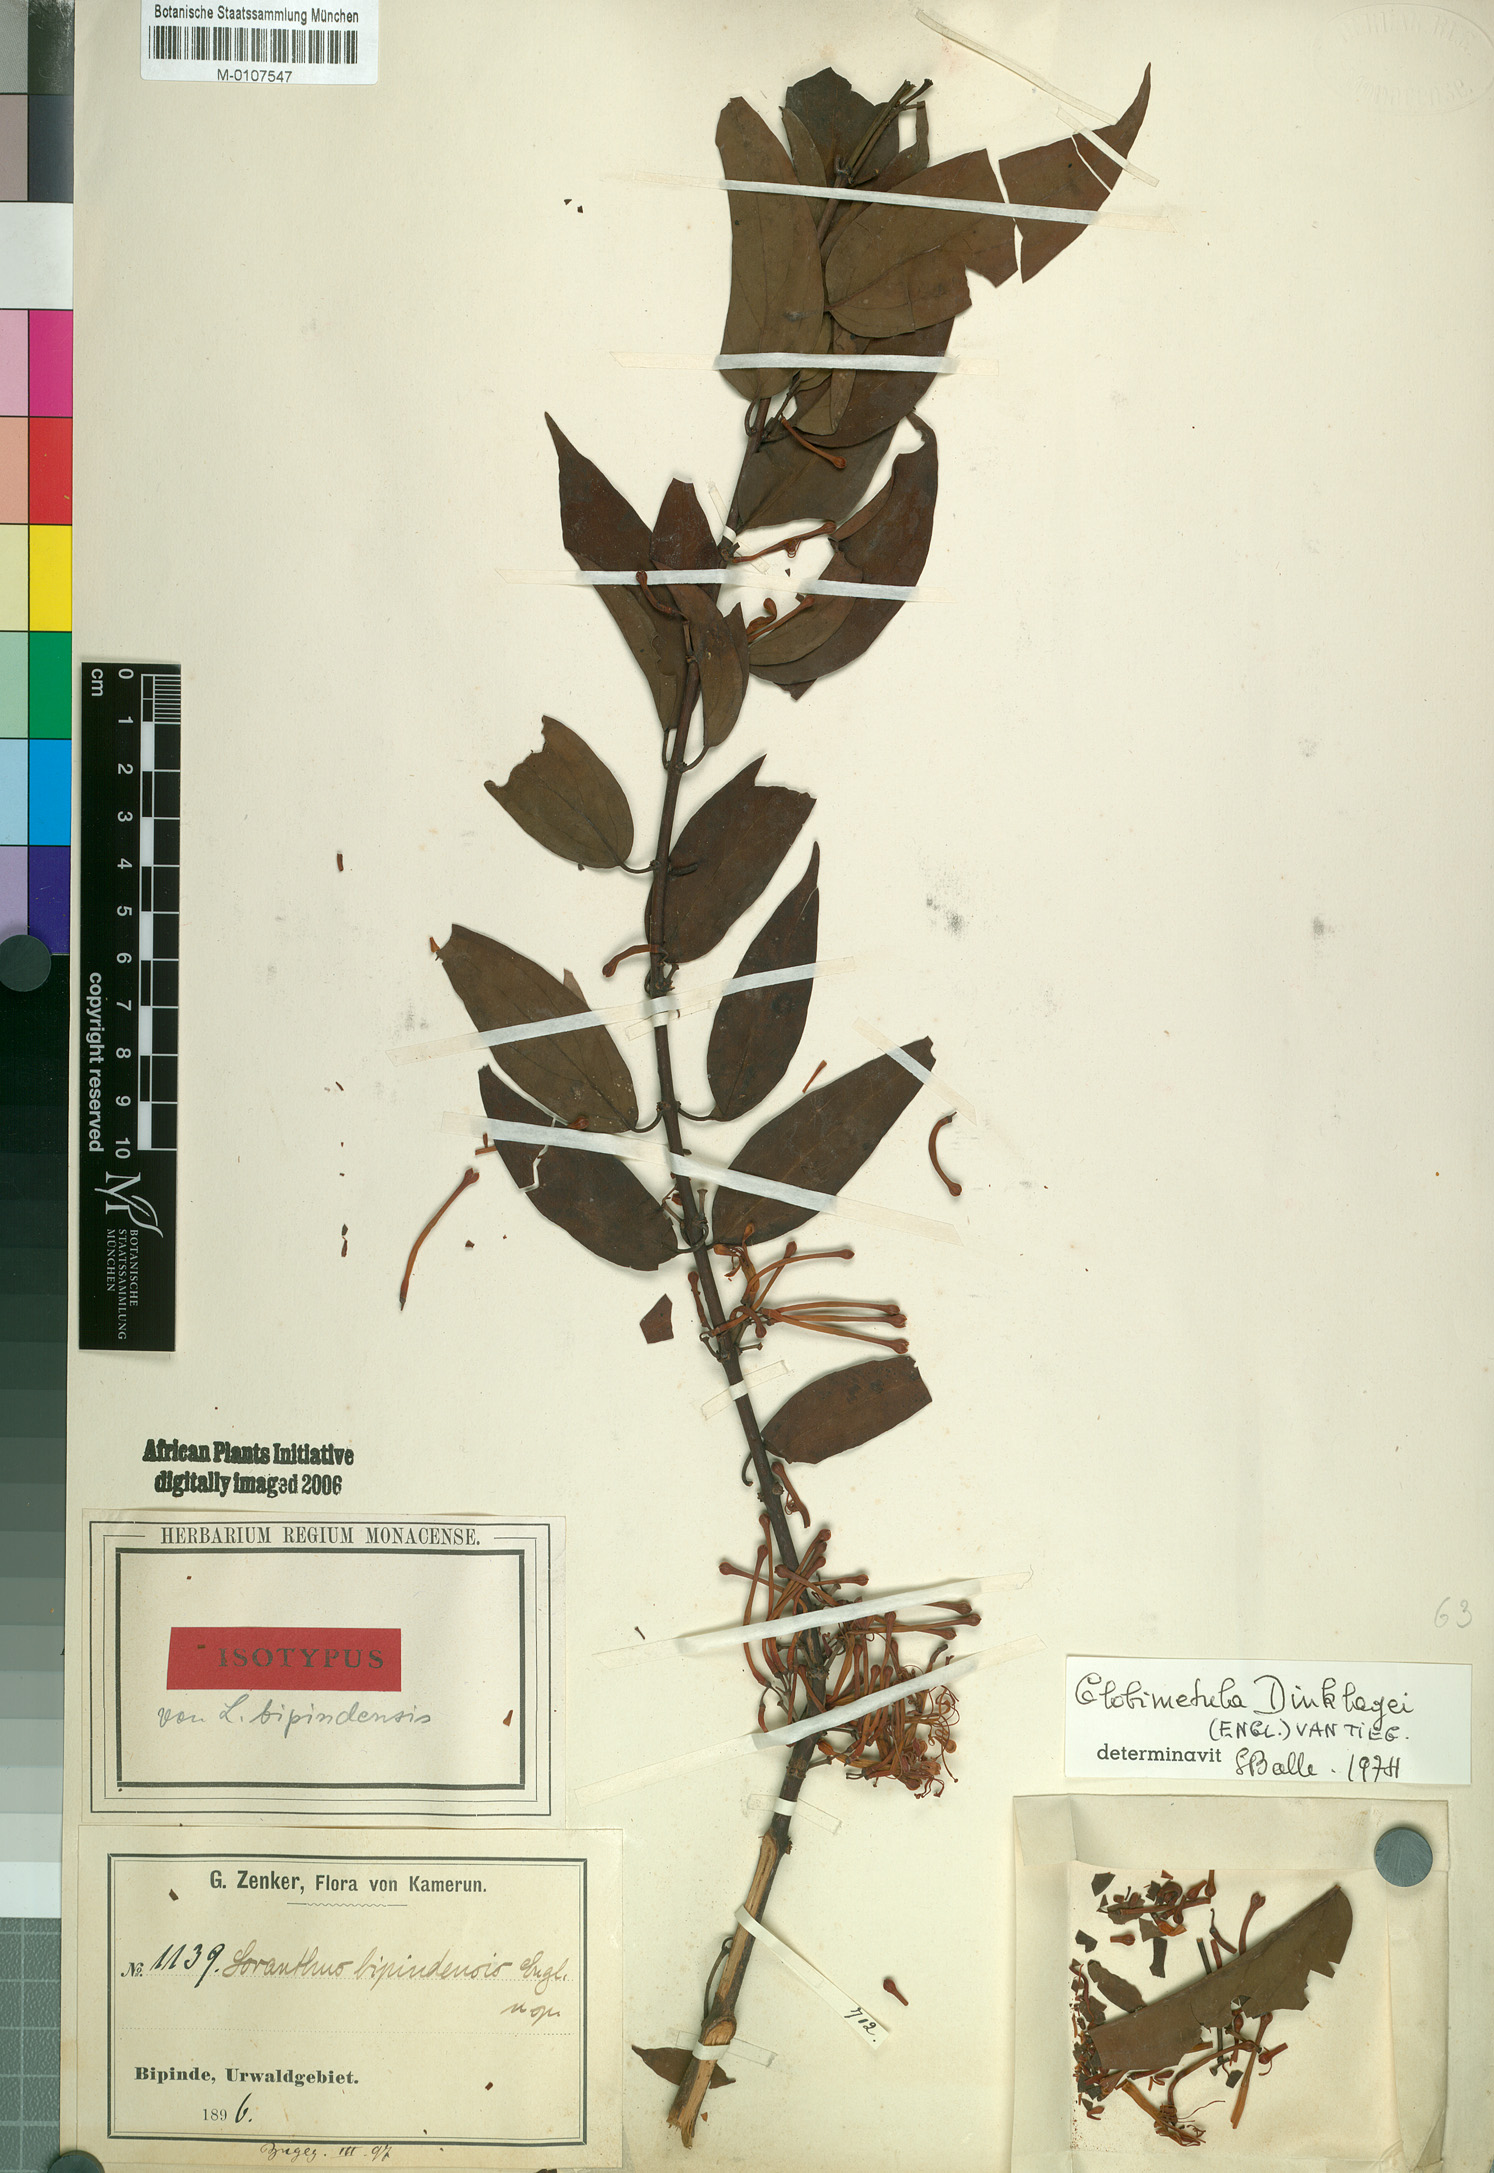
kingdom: Plantae
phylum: Tracheophyta
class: Magnoliopsida
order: Santalales
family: Loranthaceae
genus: Globimetula
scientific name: Globimetula dinklagei
